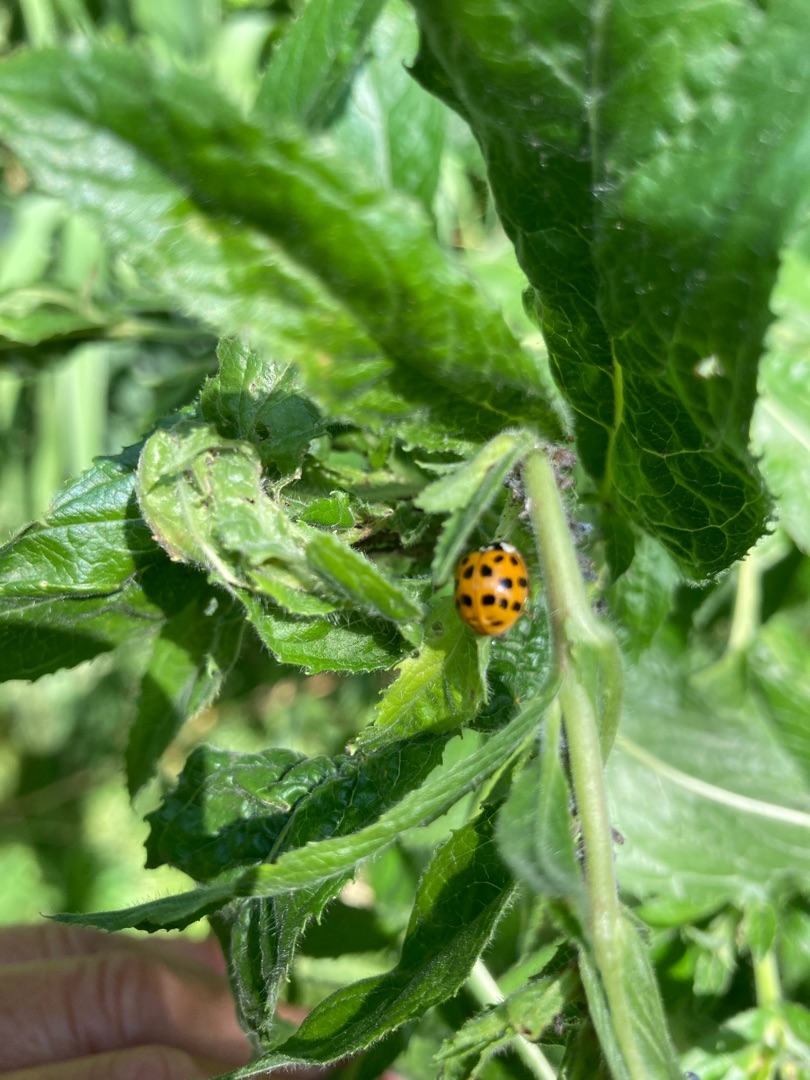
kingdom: Animalia
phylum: Arthropoda
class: Insecta
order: Coleoptera
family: Coccinellidae
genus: Harmonia
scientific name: Harmonia axyridis
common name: Harlekinmariehøne
